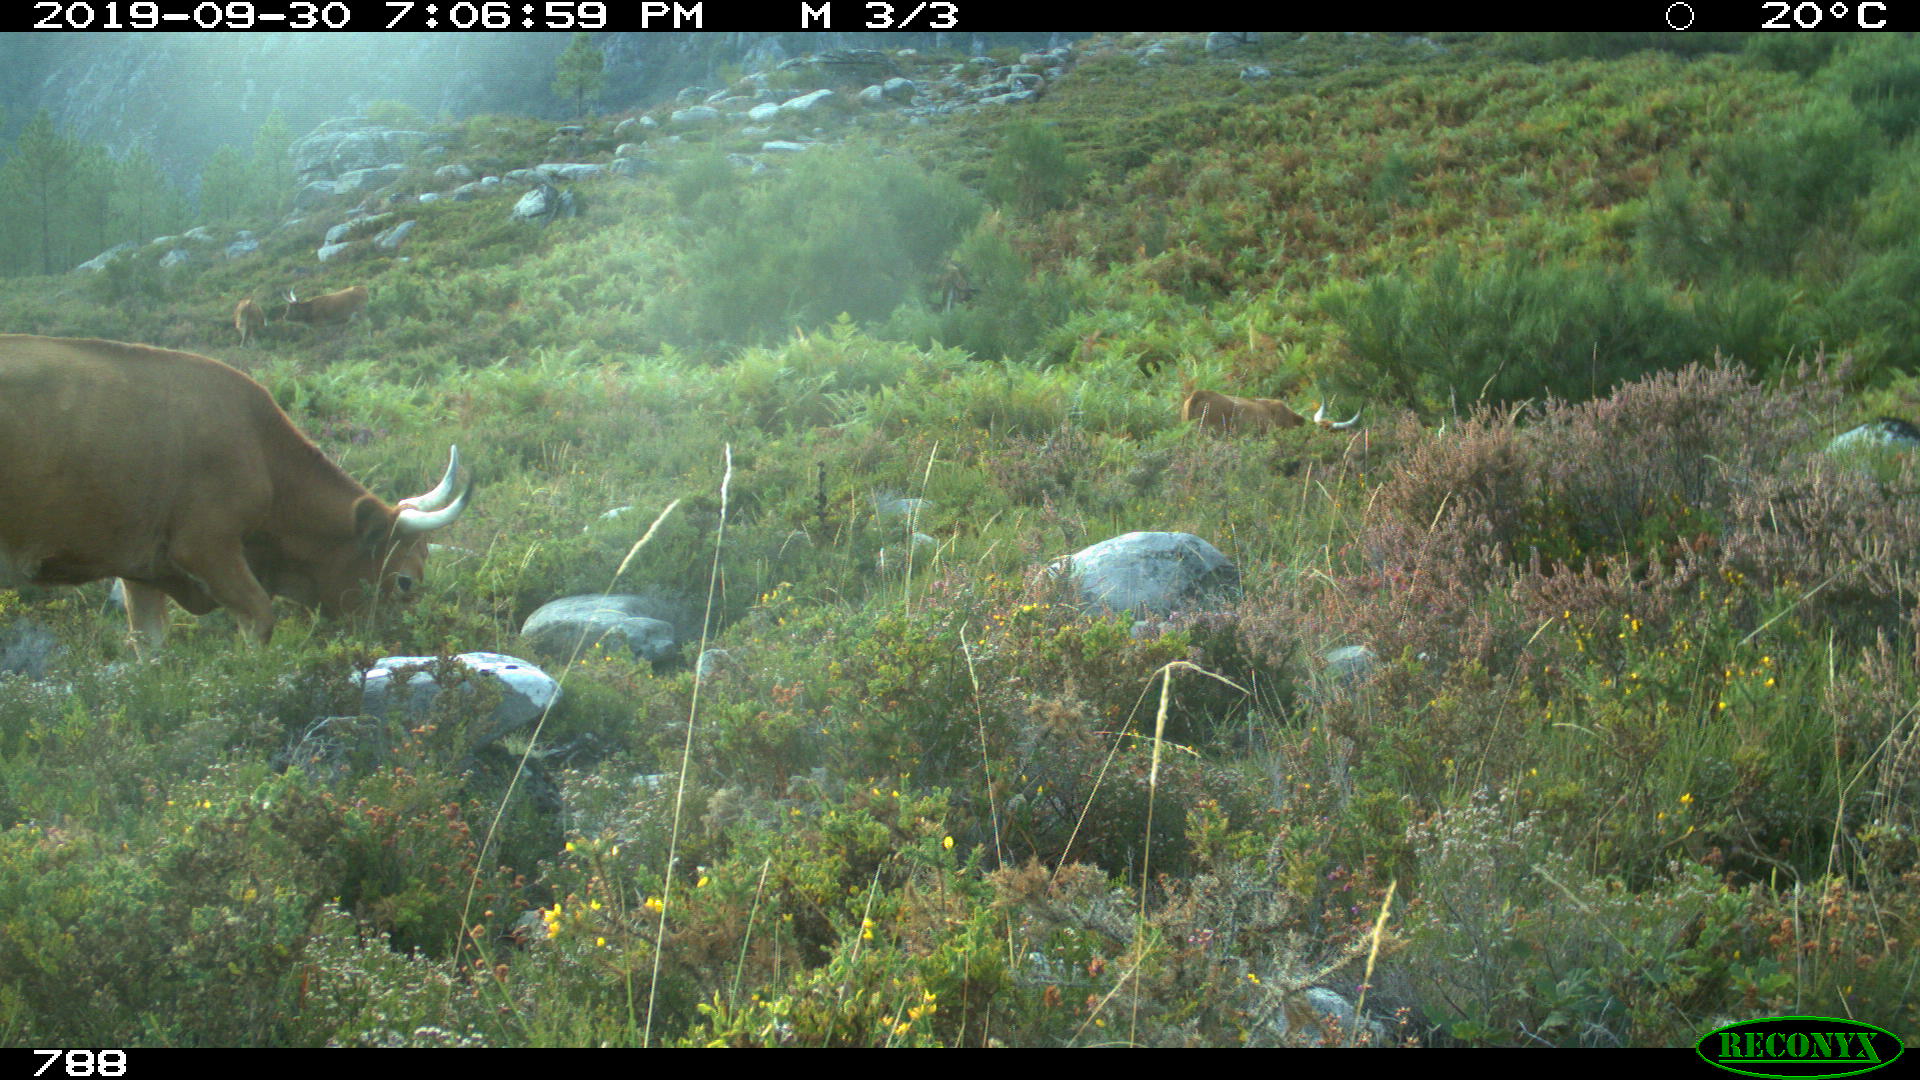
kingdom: Animalia
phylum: Chordata
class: Mammalia
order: Artiodactyla
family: Bovidae
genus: Bos
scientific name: Bos taurus
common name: Domesticated cattle
